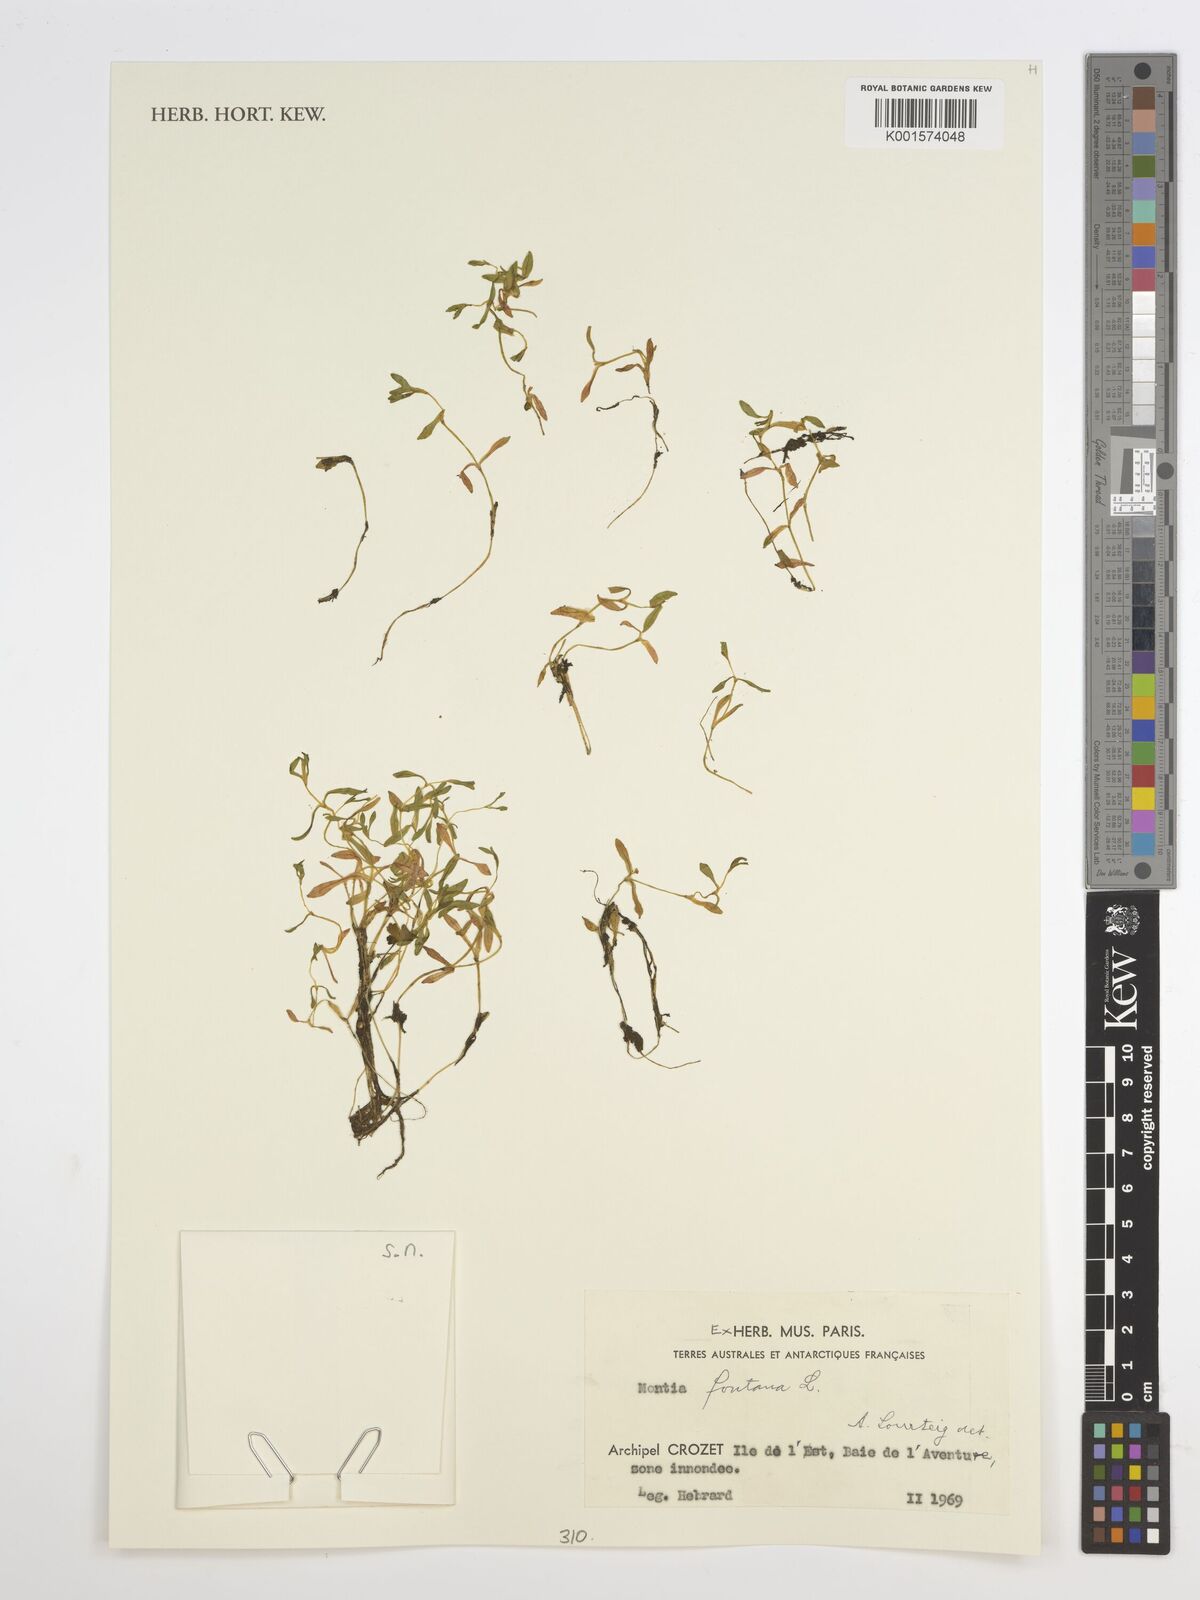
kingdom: Plantae
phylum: Tracheophyta
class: Magnoliopsida
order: Caryophyllales
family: Montiaceae
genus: Montia
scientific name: Montia fontana
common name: Blinks
